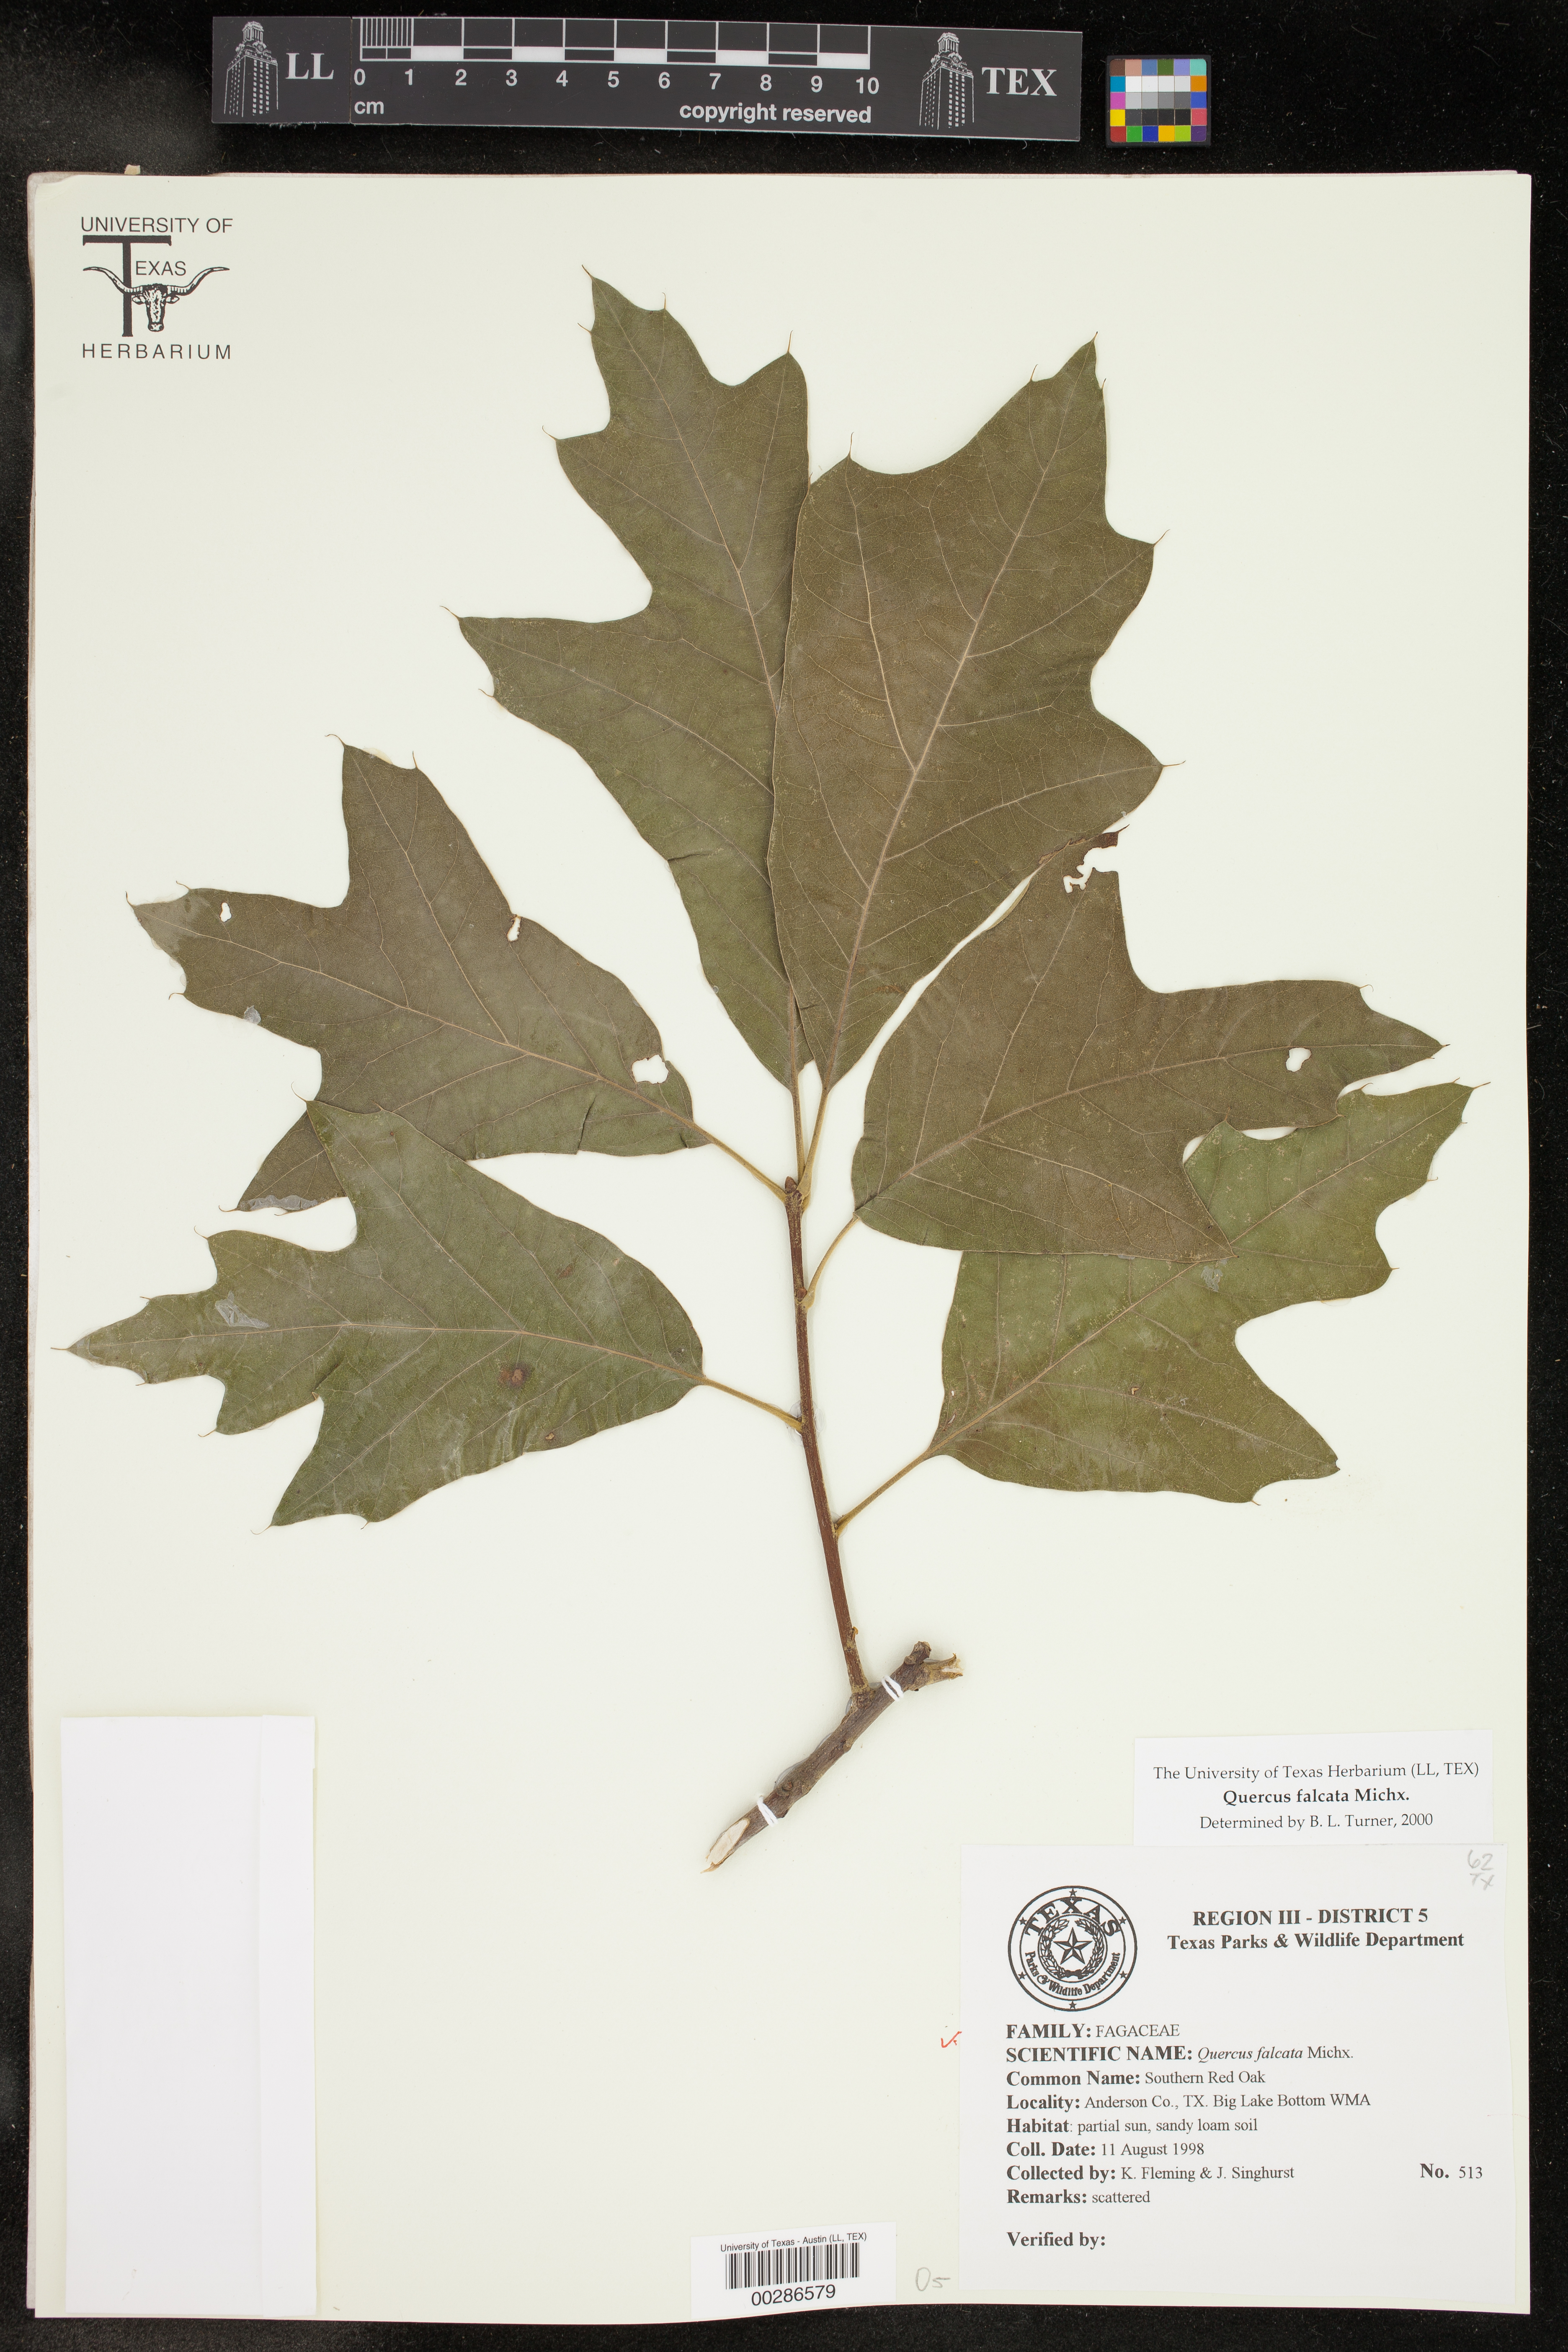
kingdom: Plantae
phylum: Tracheophyta
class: Magnoliopsida
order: Fagales
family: Fagaceae
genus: Quercus
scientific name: Quercus falcata
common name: Southern red oak
